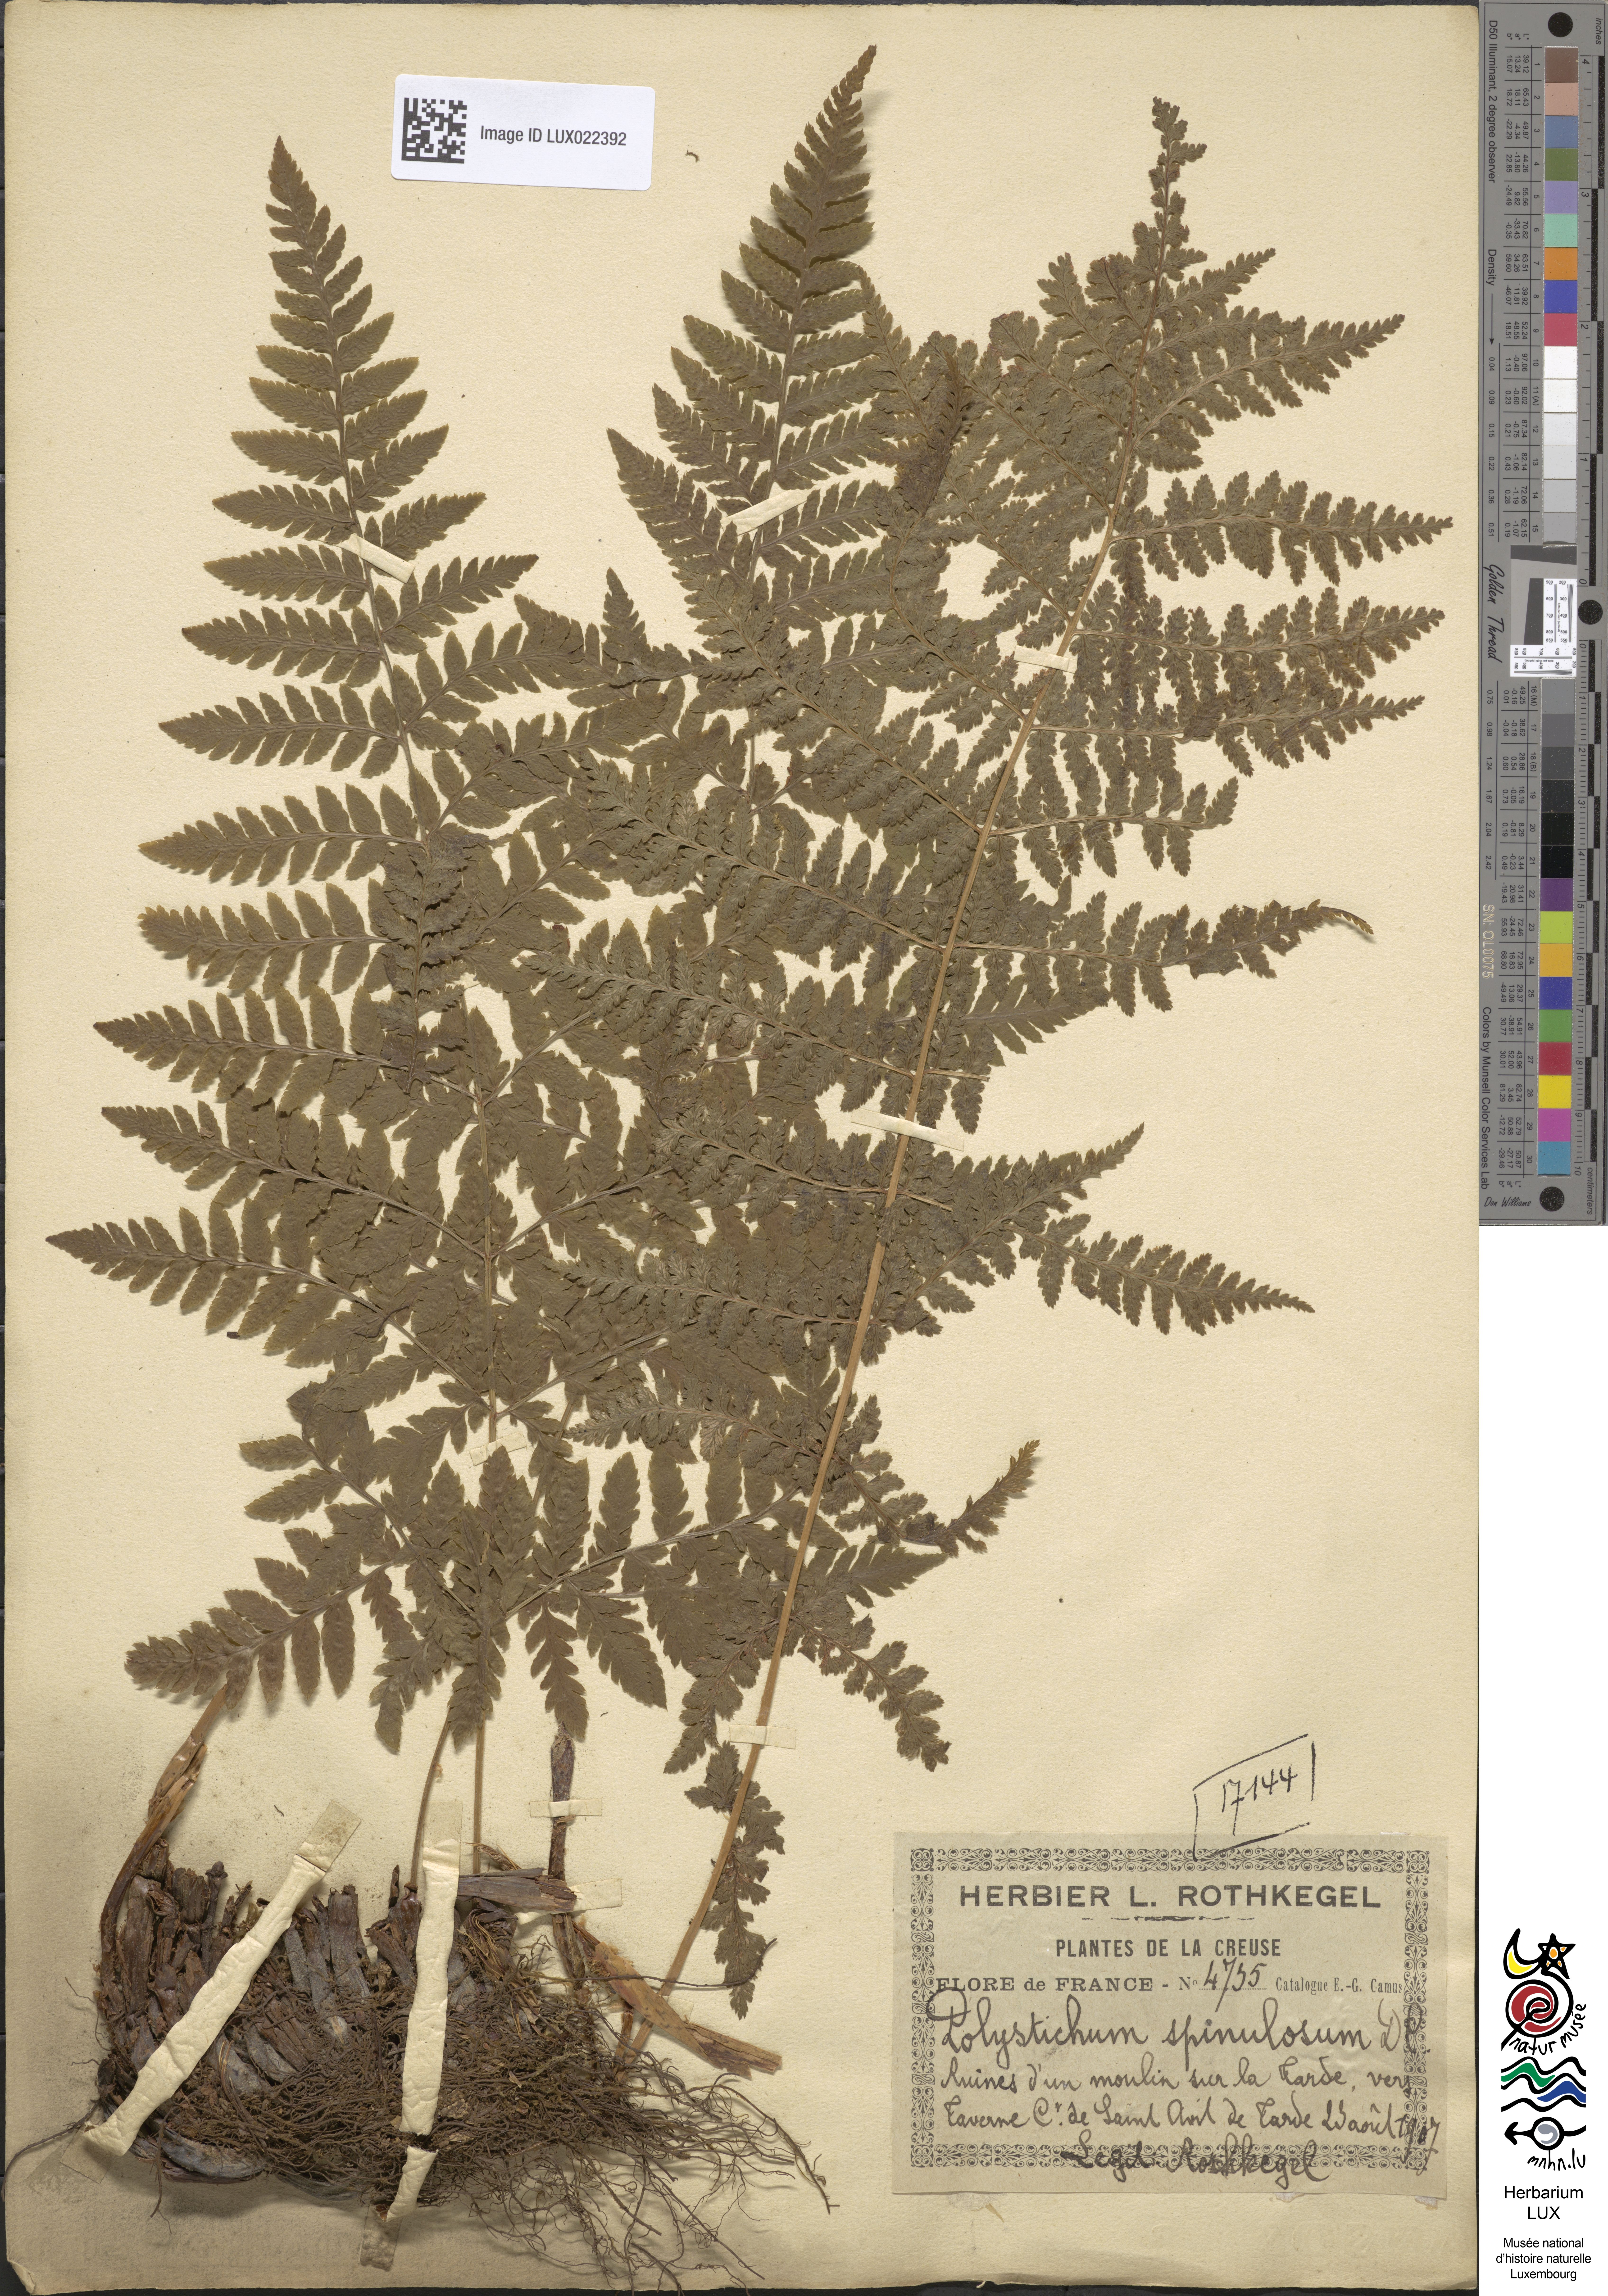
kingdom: Plantae
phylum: Tracheophyta
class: Polypodiopsida
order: Polypodiales
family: Dryopteridaceae
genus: Dryopteris
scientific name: Dryopteris carthusiana
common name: Narrow buckler-fern
